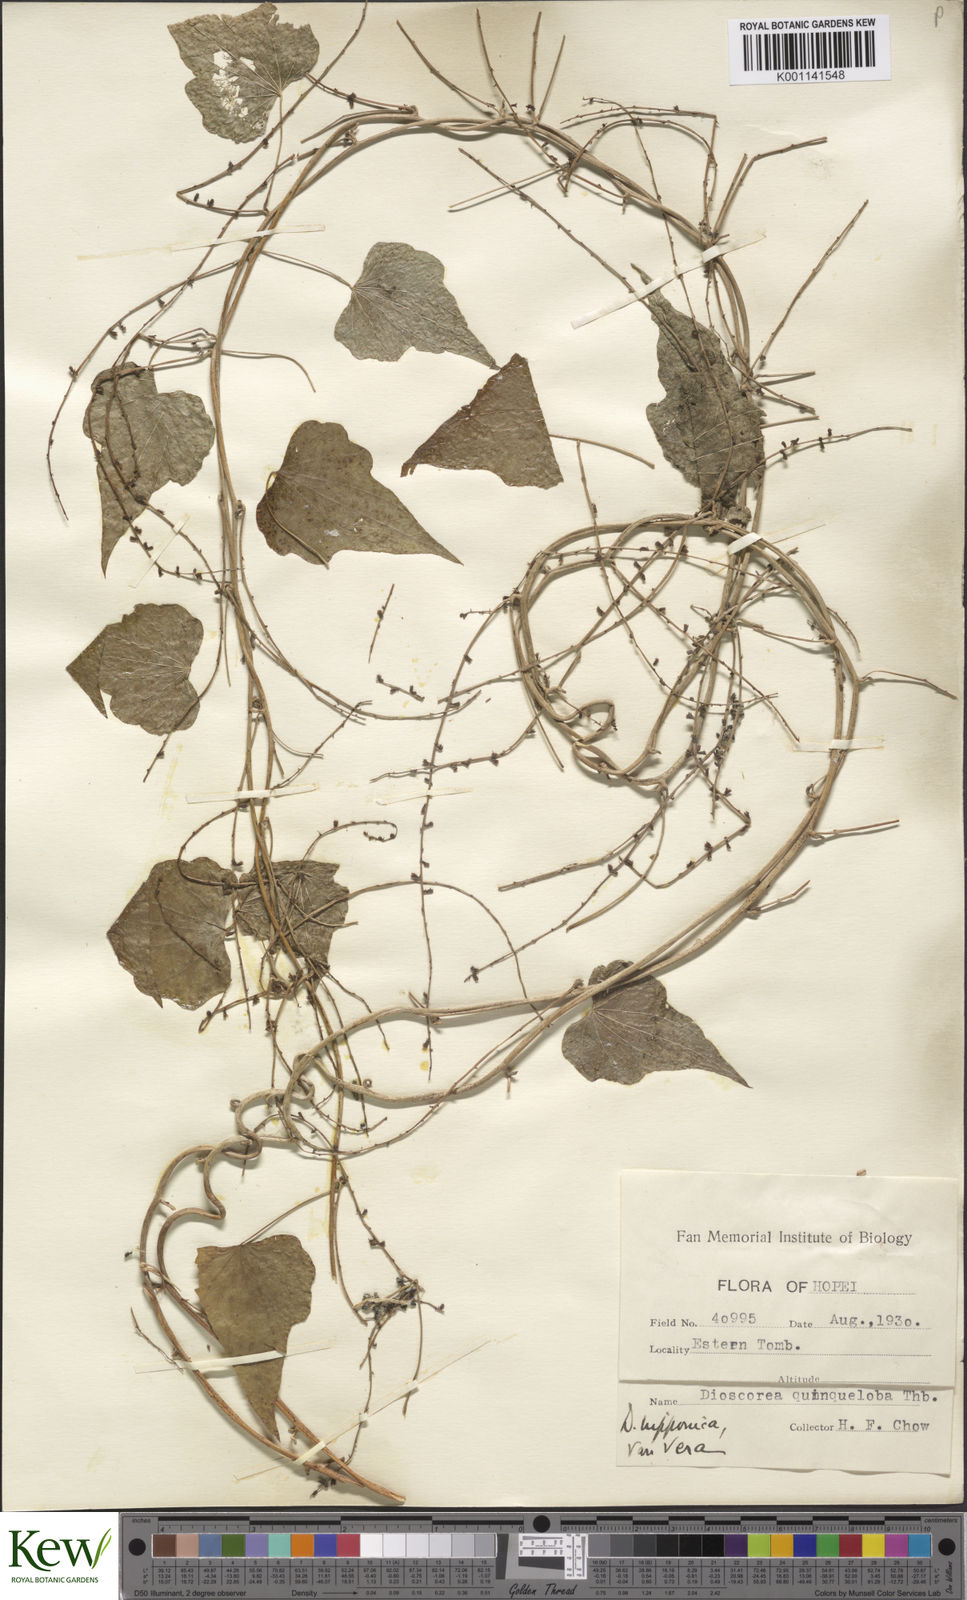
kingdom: Plantae
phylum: Tracheophyta
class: Liliopsida
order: Dioscoreales
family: Dioscoreaceae
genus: Dioscorea
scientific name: Dioscorea nipponica
